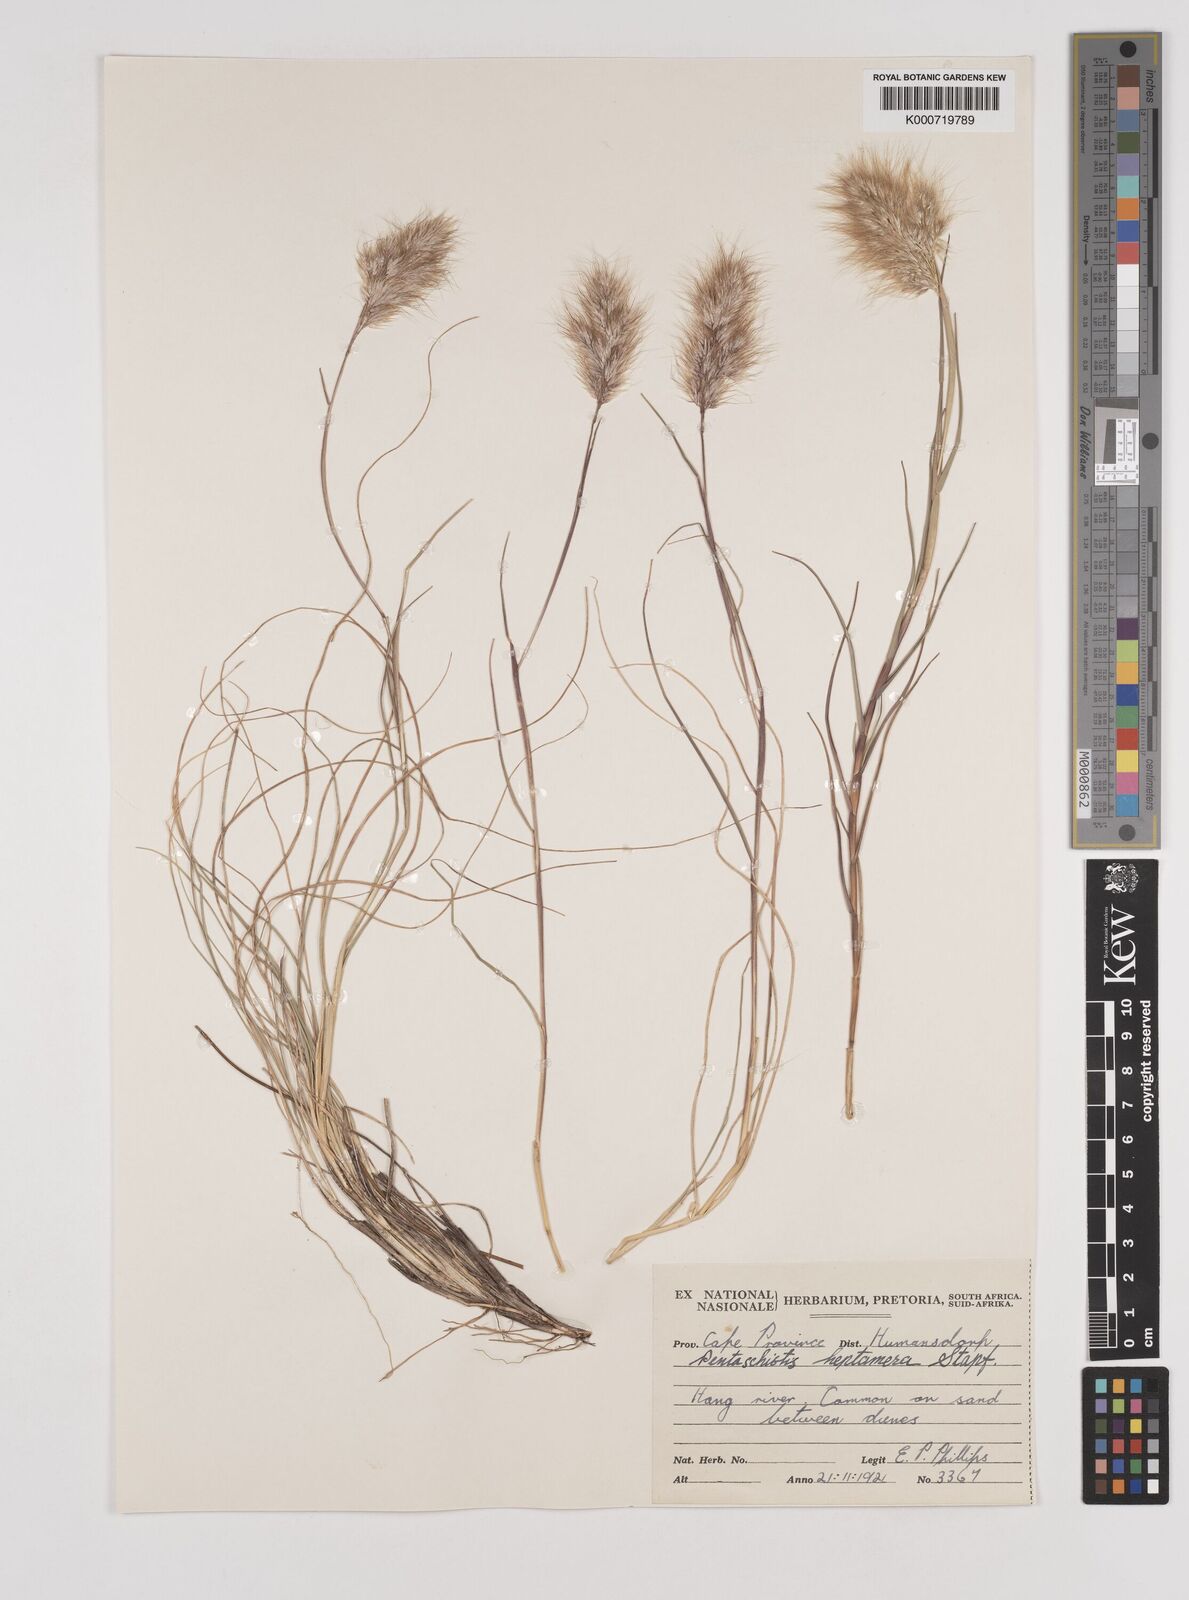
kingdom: Plantae
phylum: Tracheophyta
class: Liliopsida
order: Poales
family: Poaceae
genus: Pentameris
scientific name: Pentameris heptamera
